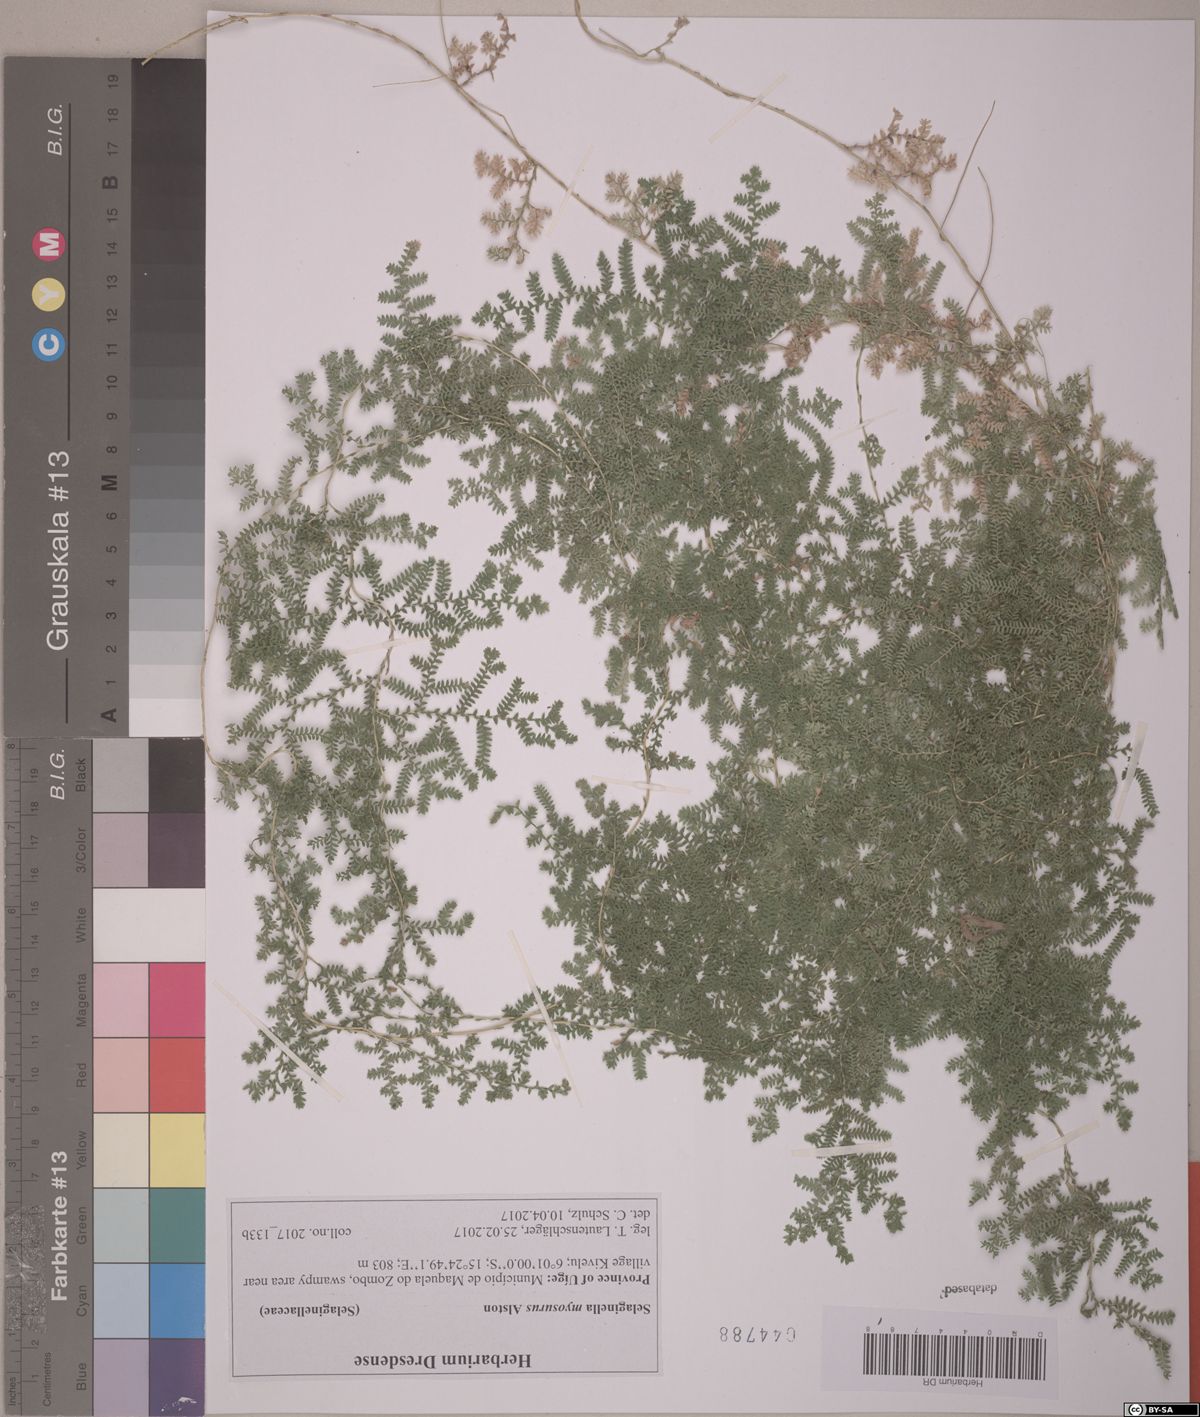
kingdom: Plantae
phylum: Tracheophyta
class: Lycopodiopsida
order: Selaginellales
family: Selaginellaceae
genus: Selaginella
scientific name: Selaginella myosurus
